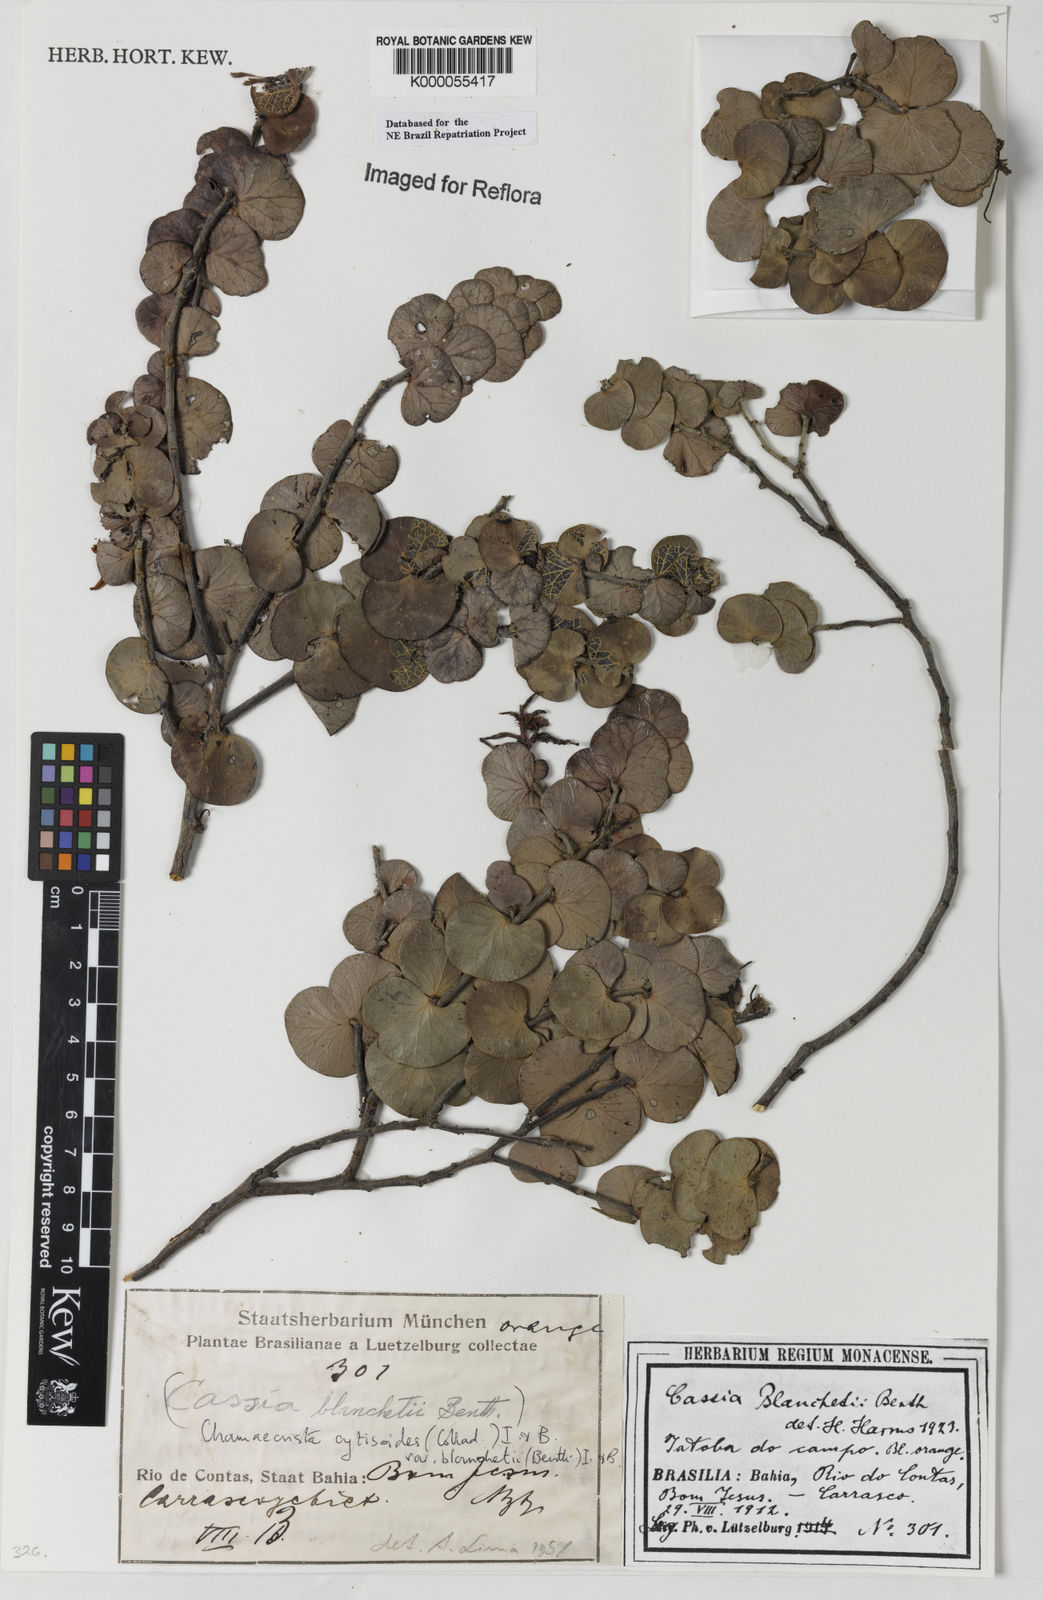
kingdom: Plantae
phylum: Tracheophyta
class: Magnoliopsida
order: Fabales
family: Fabaceae
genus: Chamaecrista
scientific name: Chamaecrista
